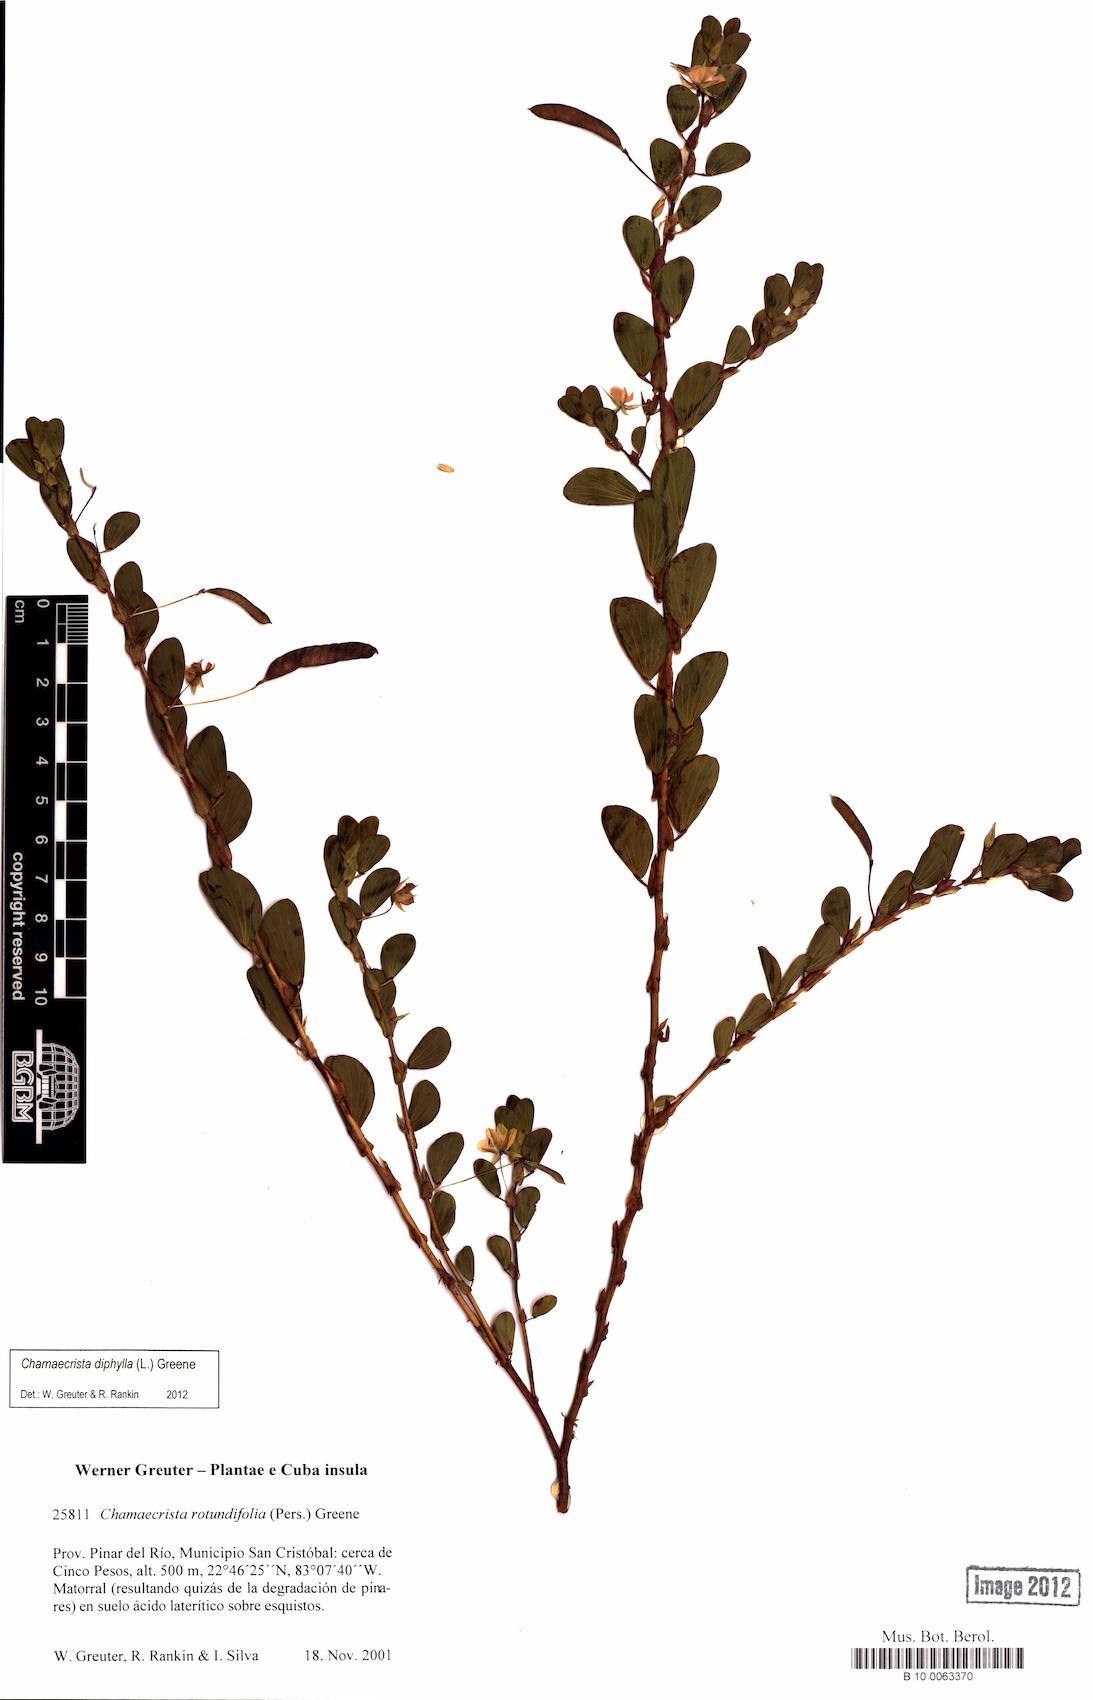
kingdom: Plantae
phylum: Tracheophyta
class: Magnoliopsida
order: Fabales
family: Fabaceae
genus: Chamaecrista
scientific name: Chamaecrista rotundifolia
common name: Round-leaf cassia
